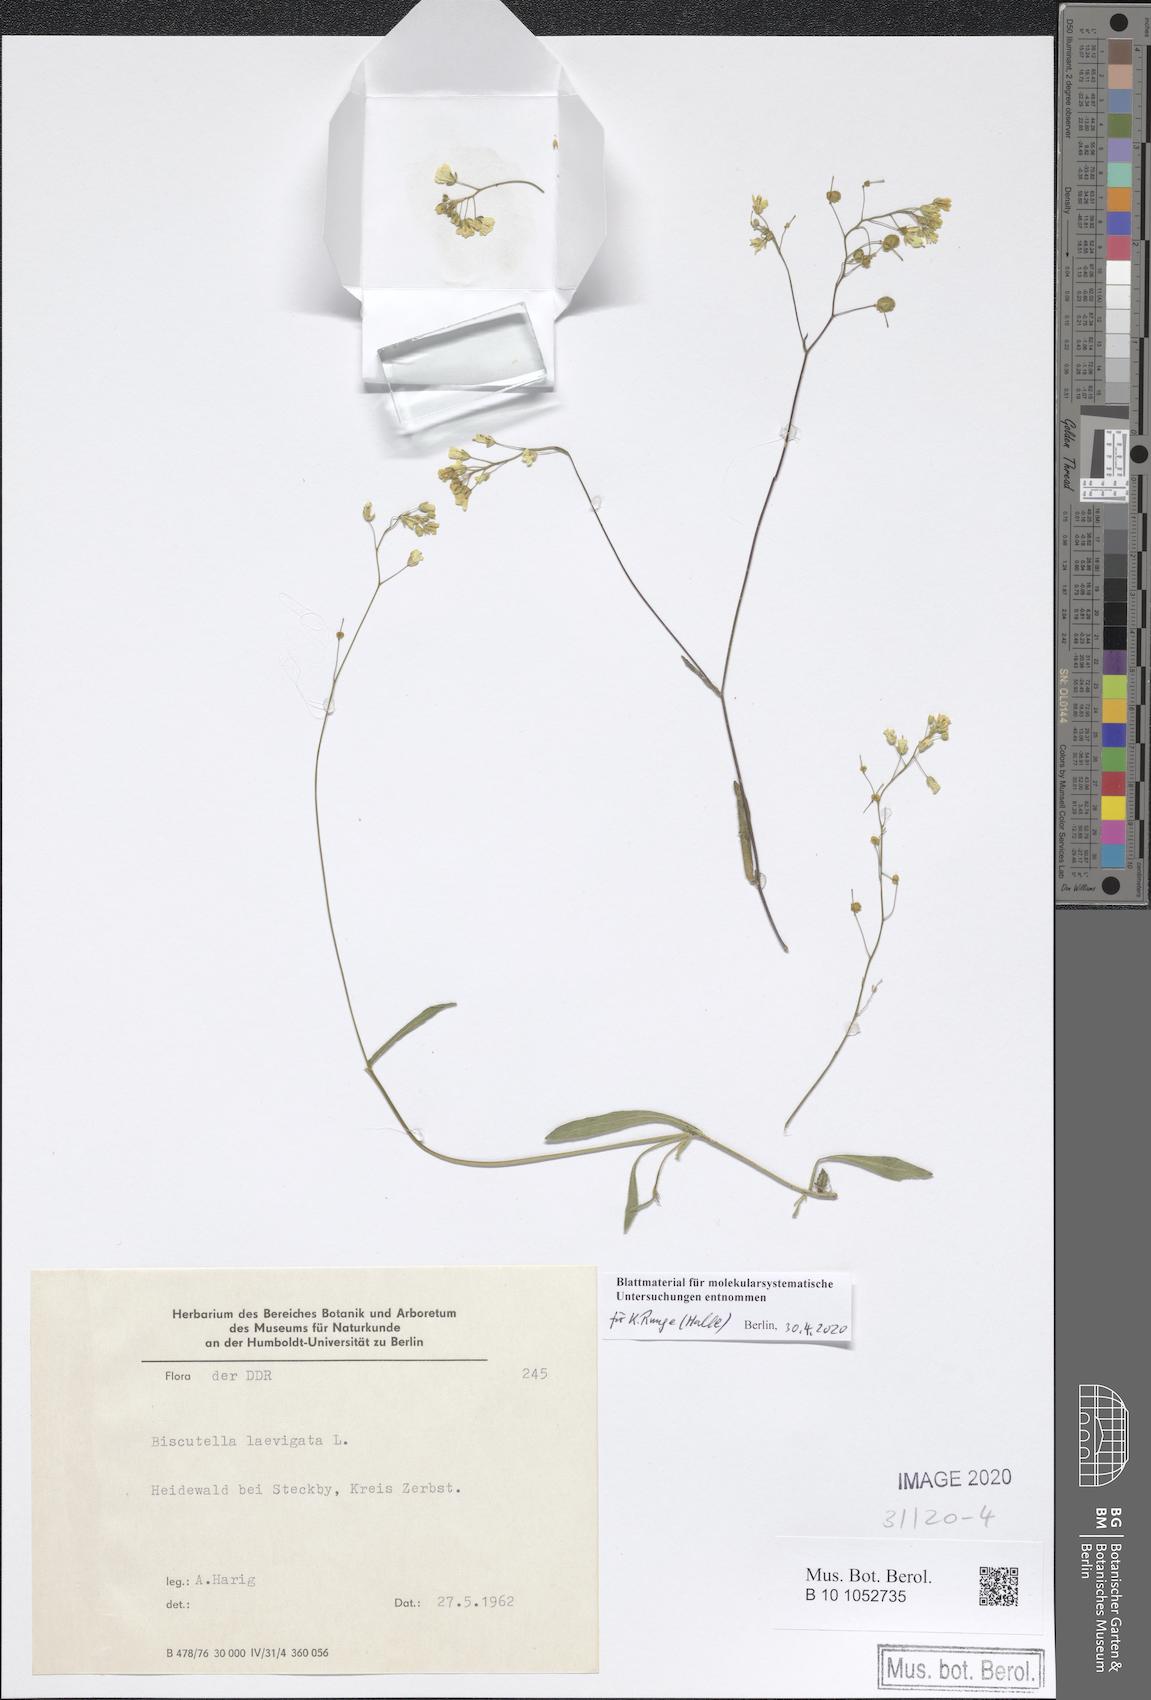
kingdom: Plantae
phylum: Tracheophyta
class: Magnoliopsida
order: Brassicales
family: Brassicaceae
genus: Biscutella
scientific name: Biscutella laevigata
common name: Buckler mustard
